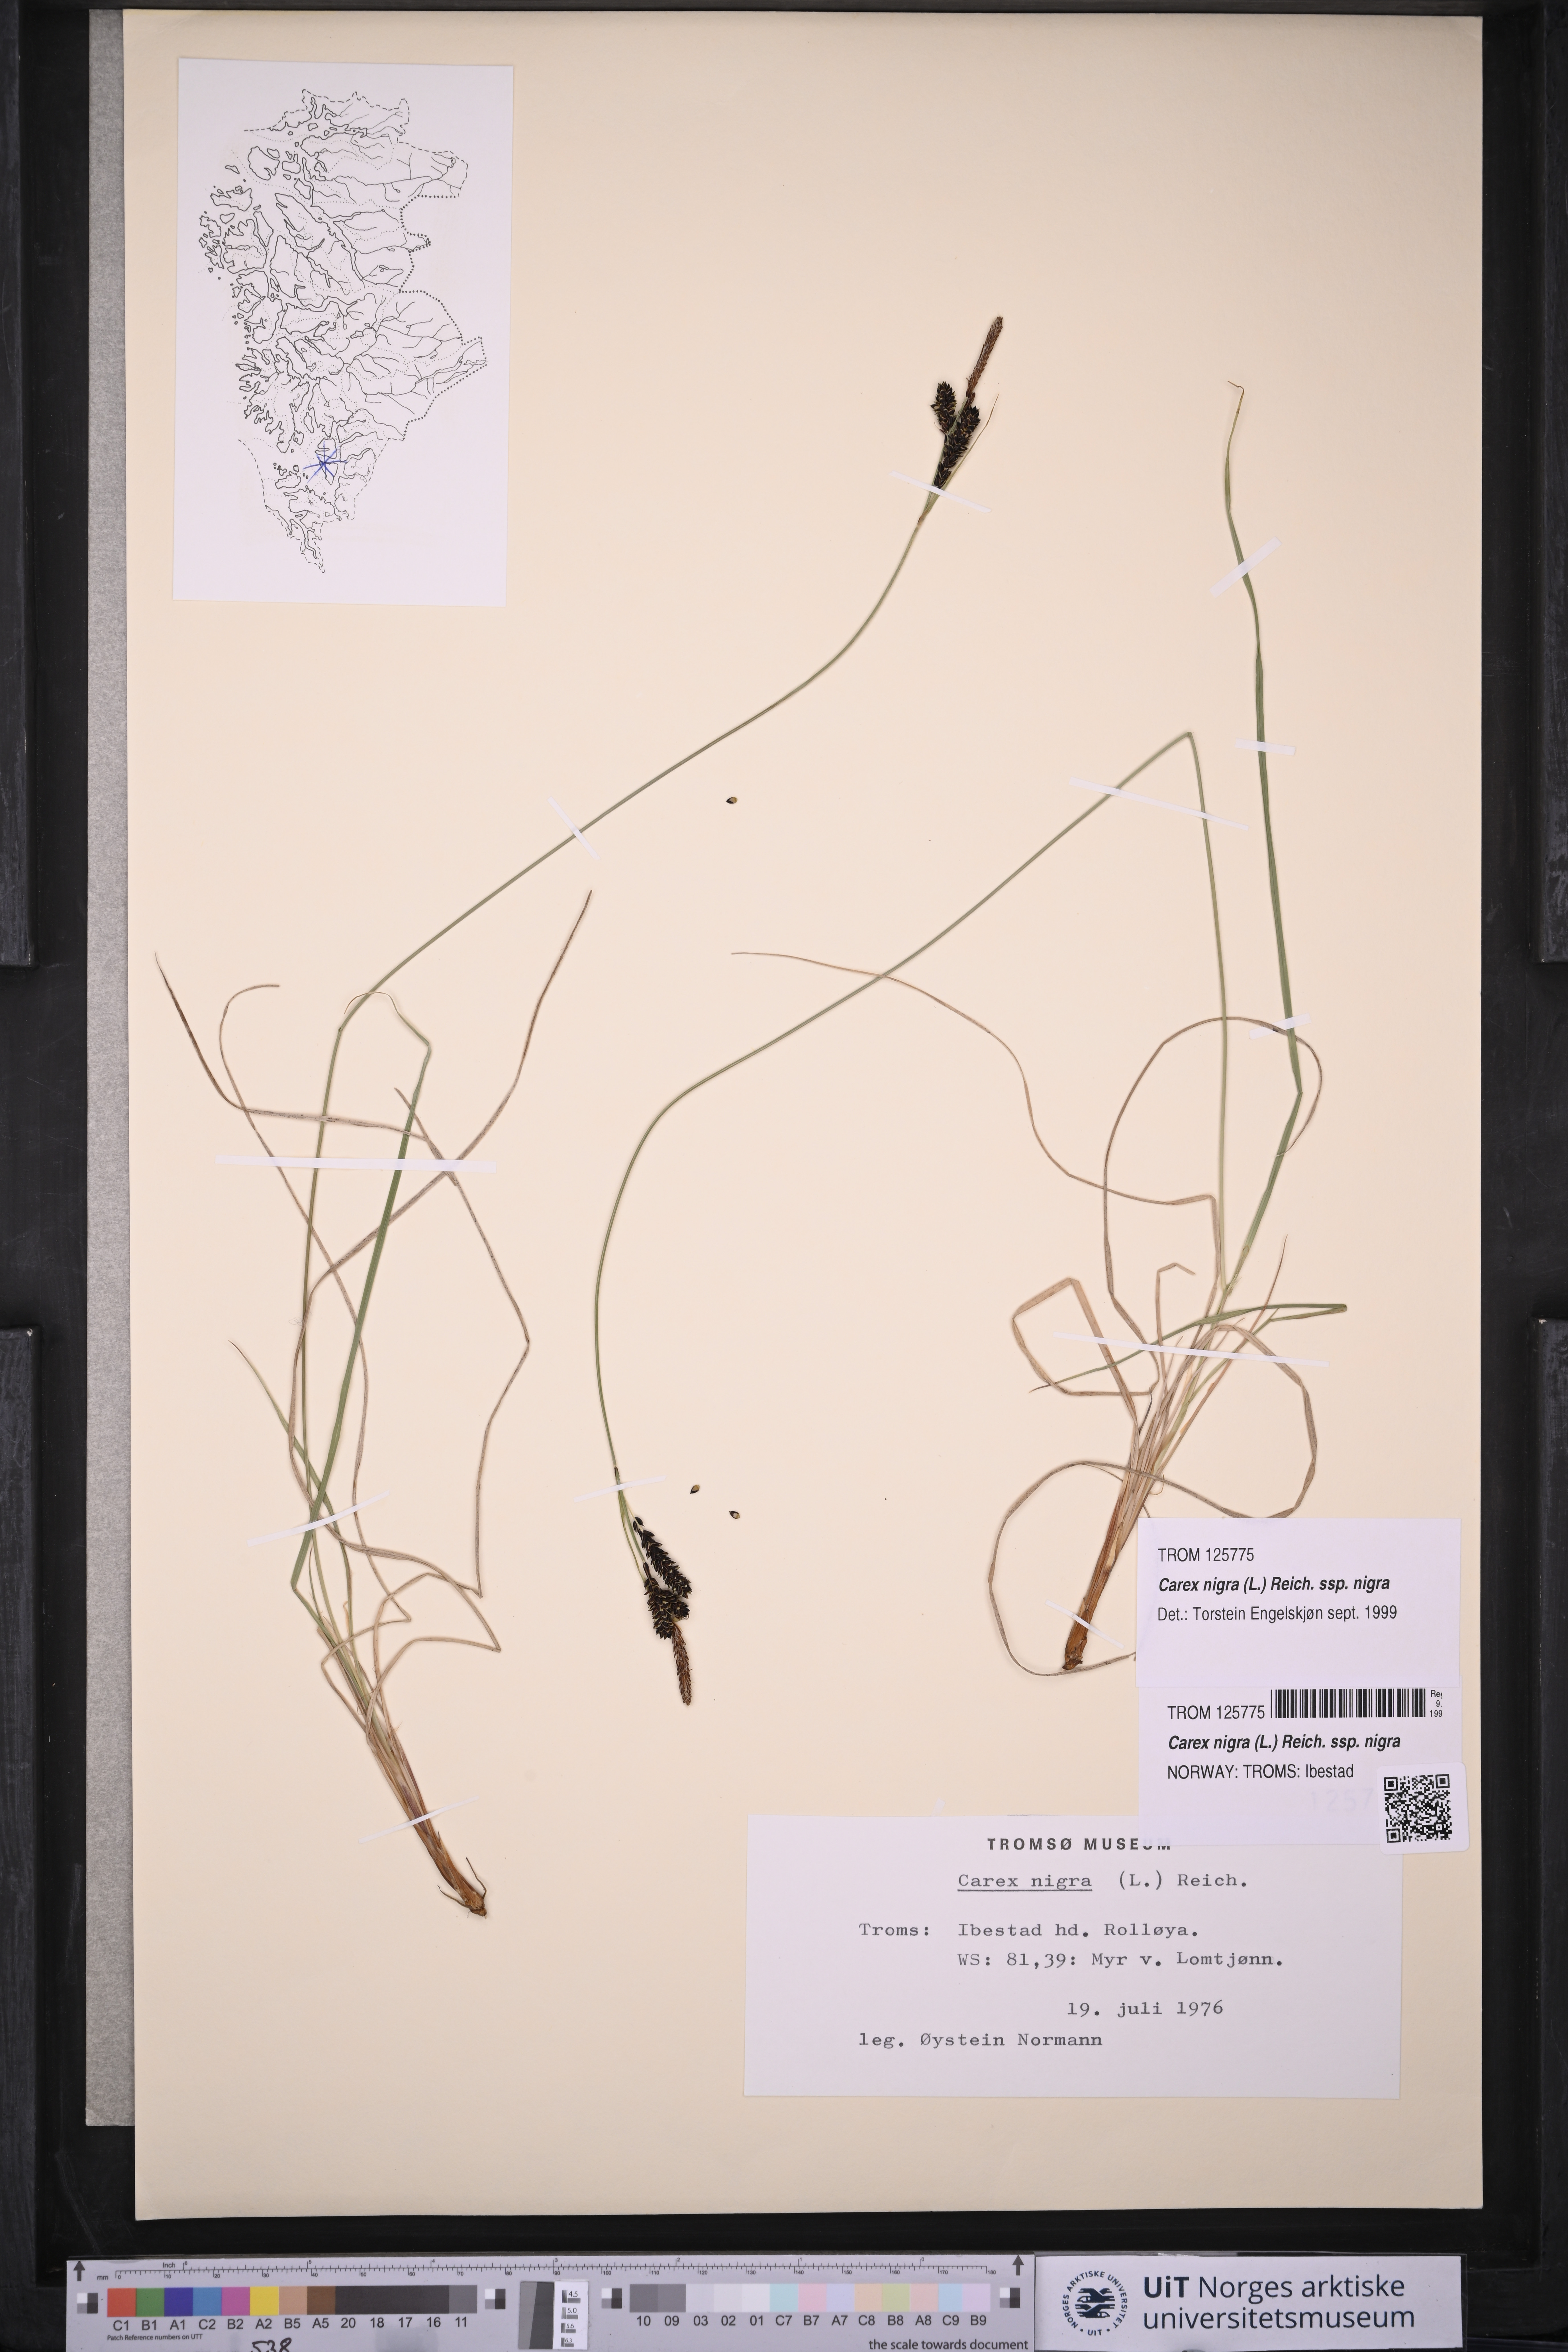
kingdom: Plantae
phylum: Tracheophyta
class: Liliopsida
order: Poales
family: Cyperaceae
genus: Carex
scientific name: Carex nigra
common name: Common sedge
